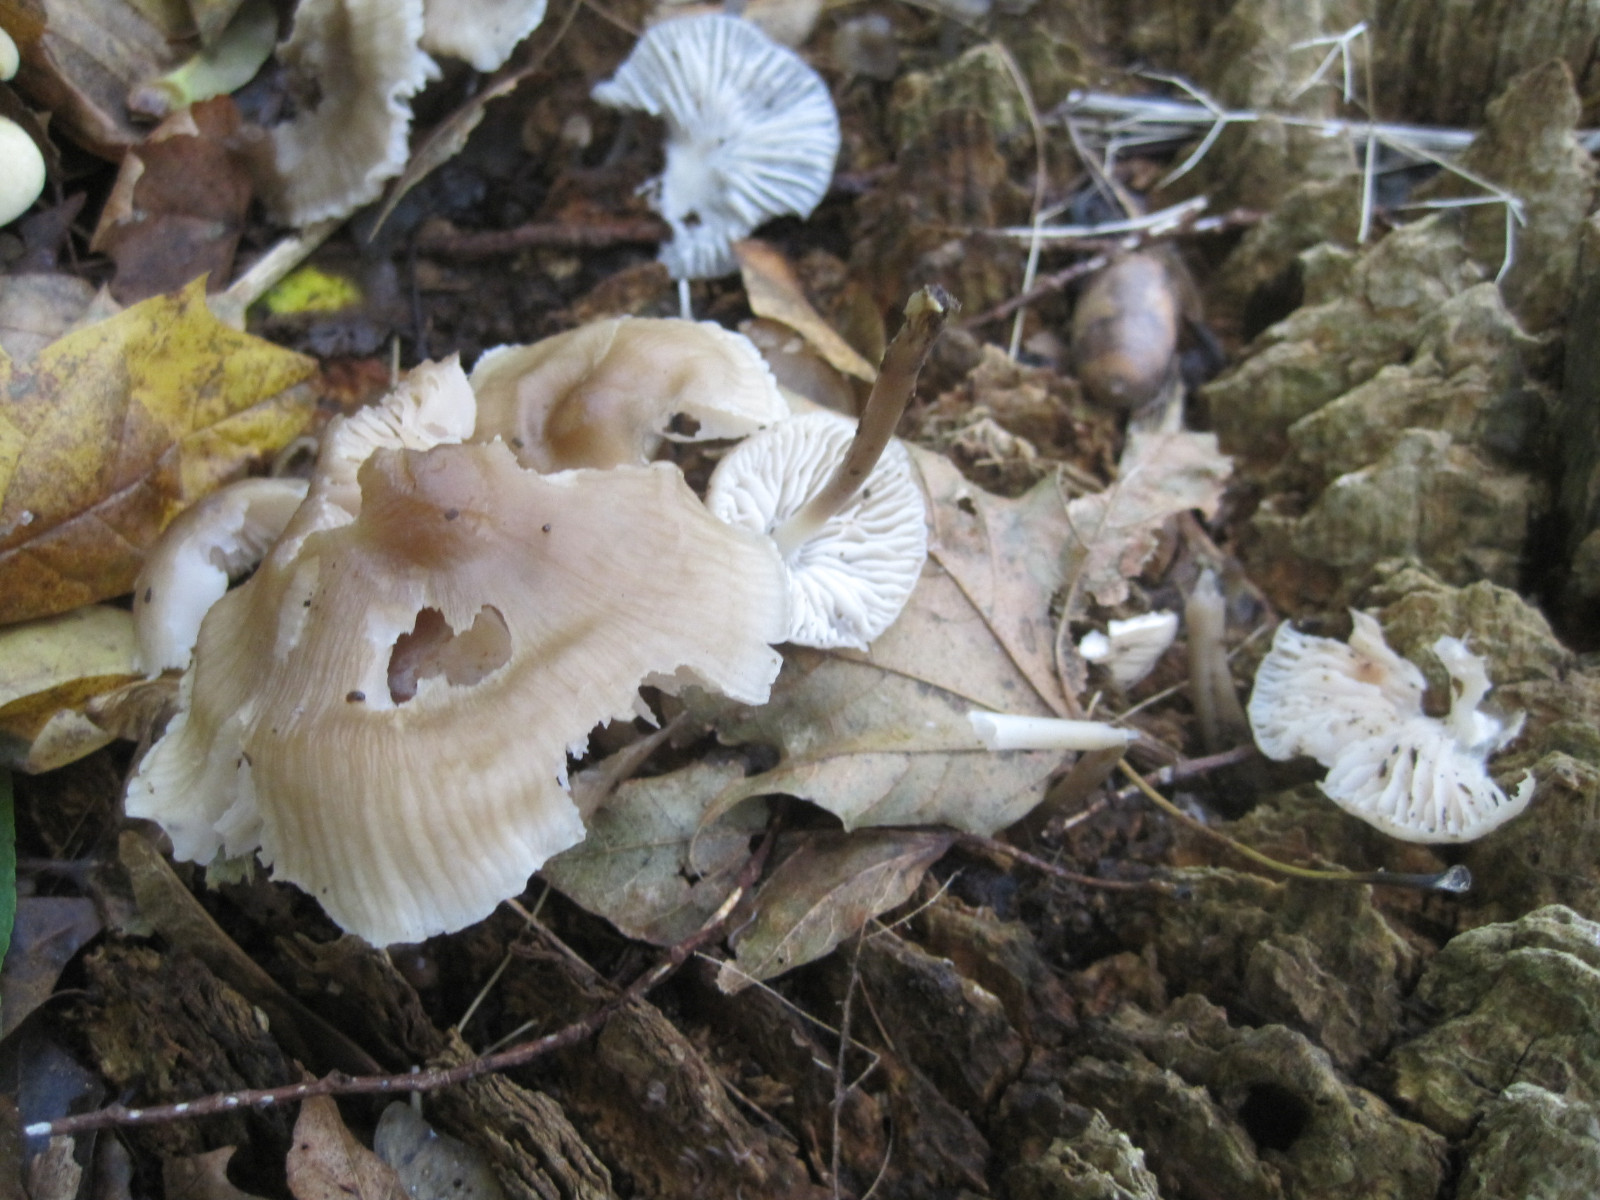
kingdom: Fungi
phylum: Basidiomycota
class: Agaricomycetes
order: Agaricales
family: Mycenaceae
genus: Mycena
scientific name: Mycena galericulata
